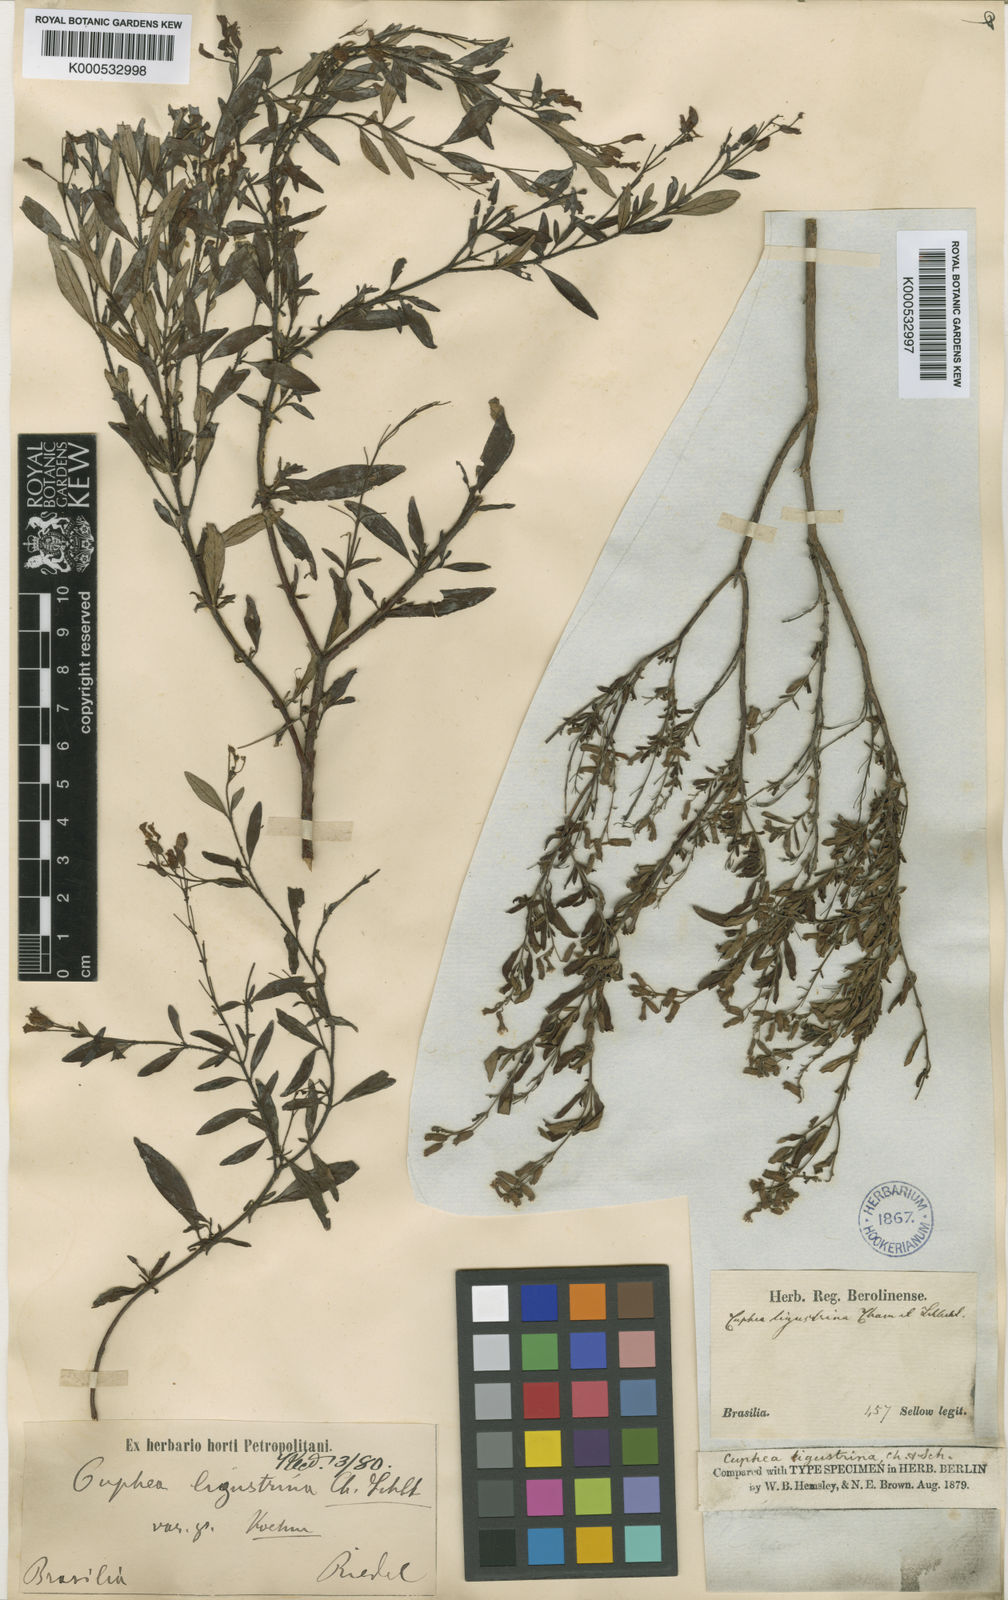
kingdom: Plantae
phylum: Tracheophyta
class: Magnoliopsida
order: Myrtales
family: Lythraceae
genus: Cuphea
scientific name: Cuphea fruticosa
